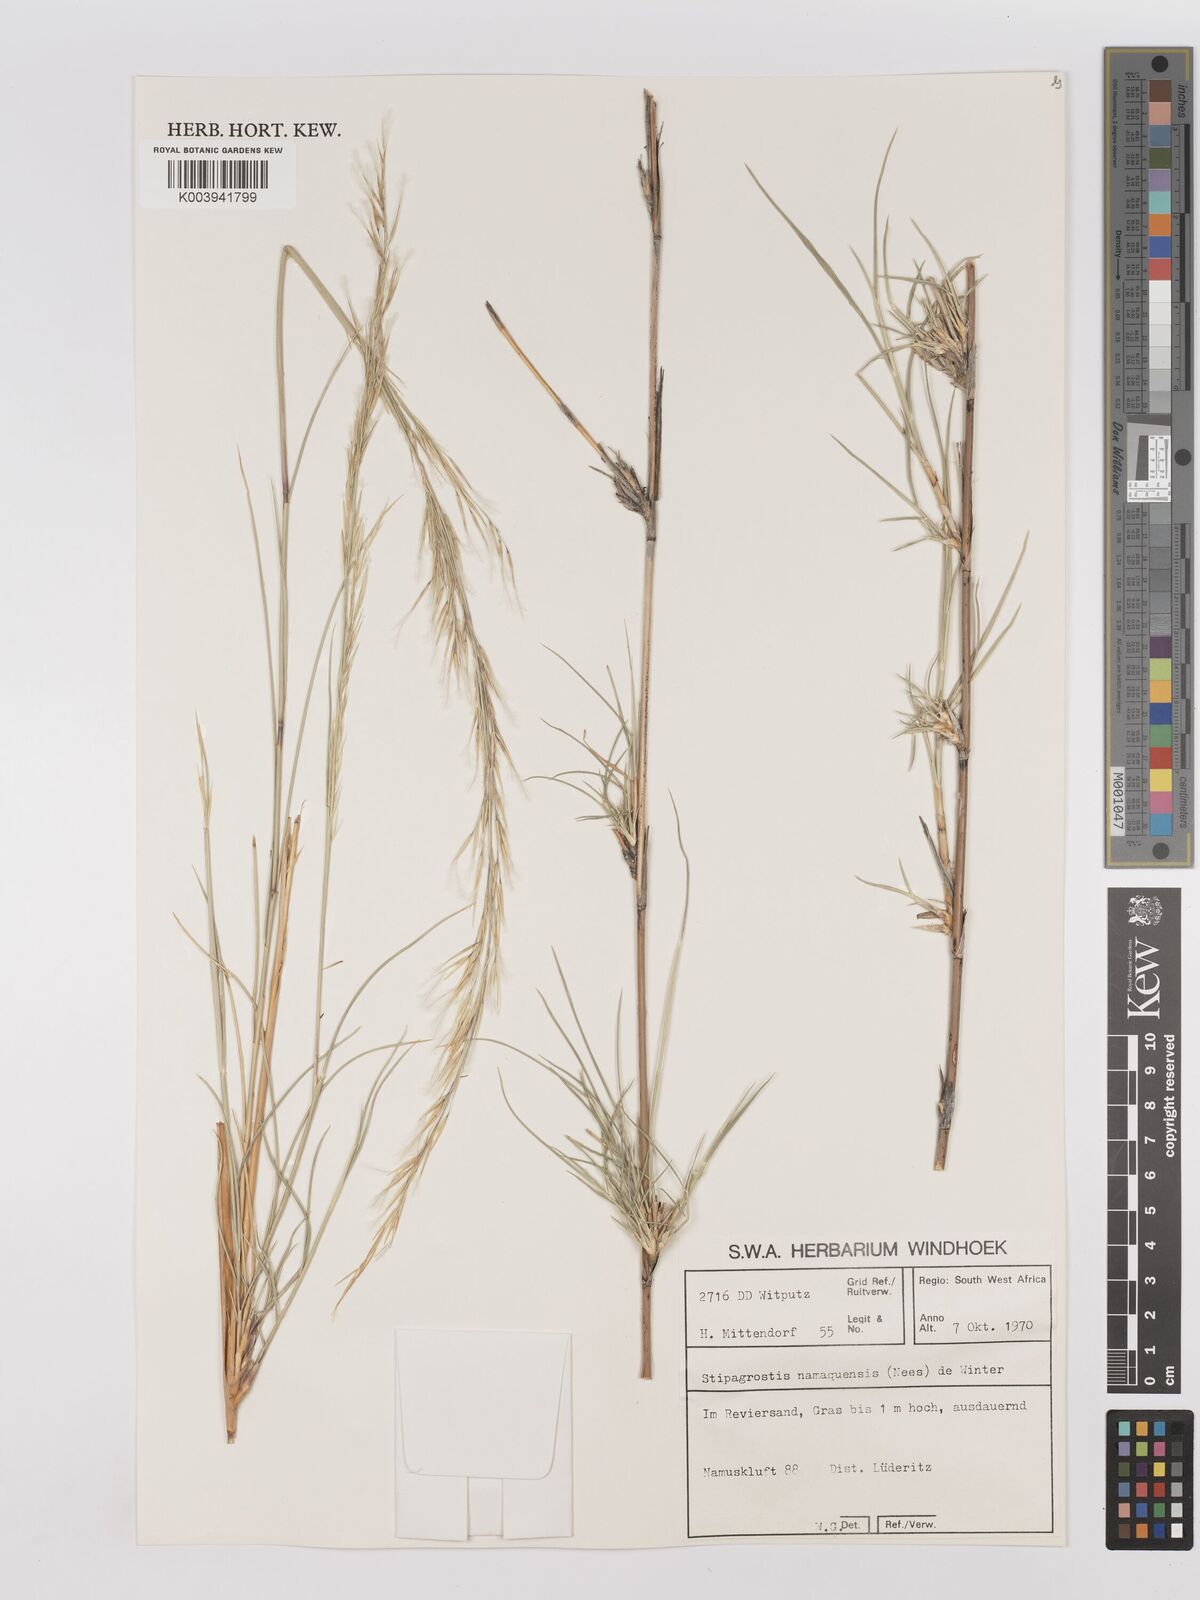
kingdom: Plantae
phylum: Tracheophyta
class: Liliopsida
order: Poales
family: Poaceae
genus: Stipagrostis
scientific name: Stipagrostis namaquensis
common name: River bushman grass
